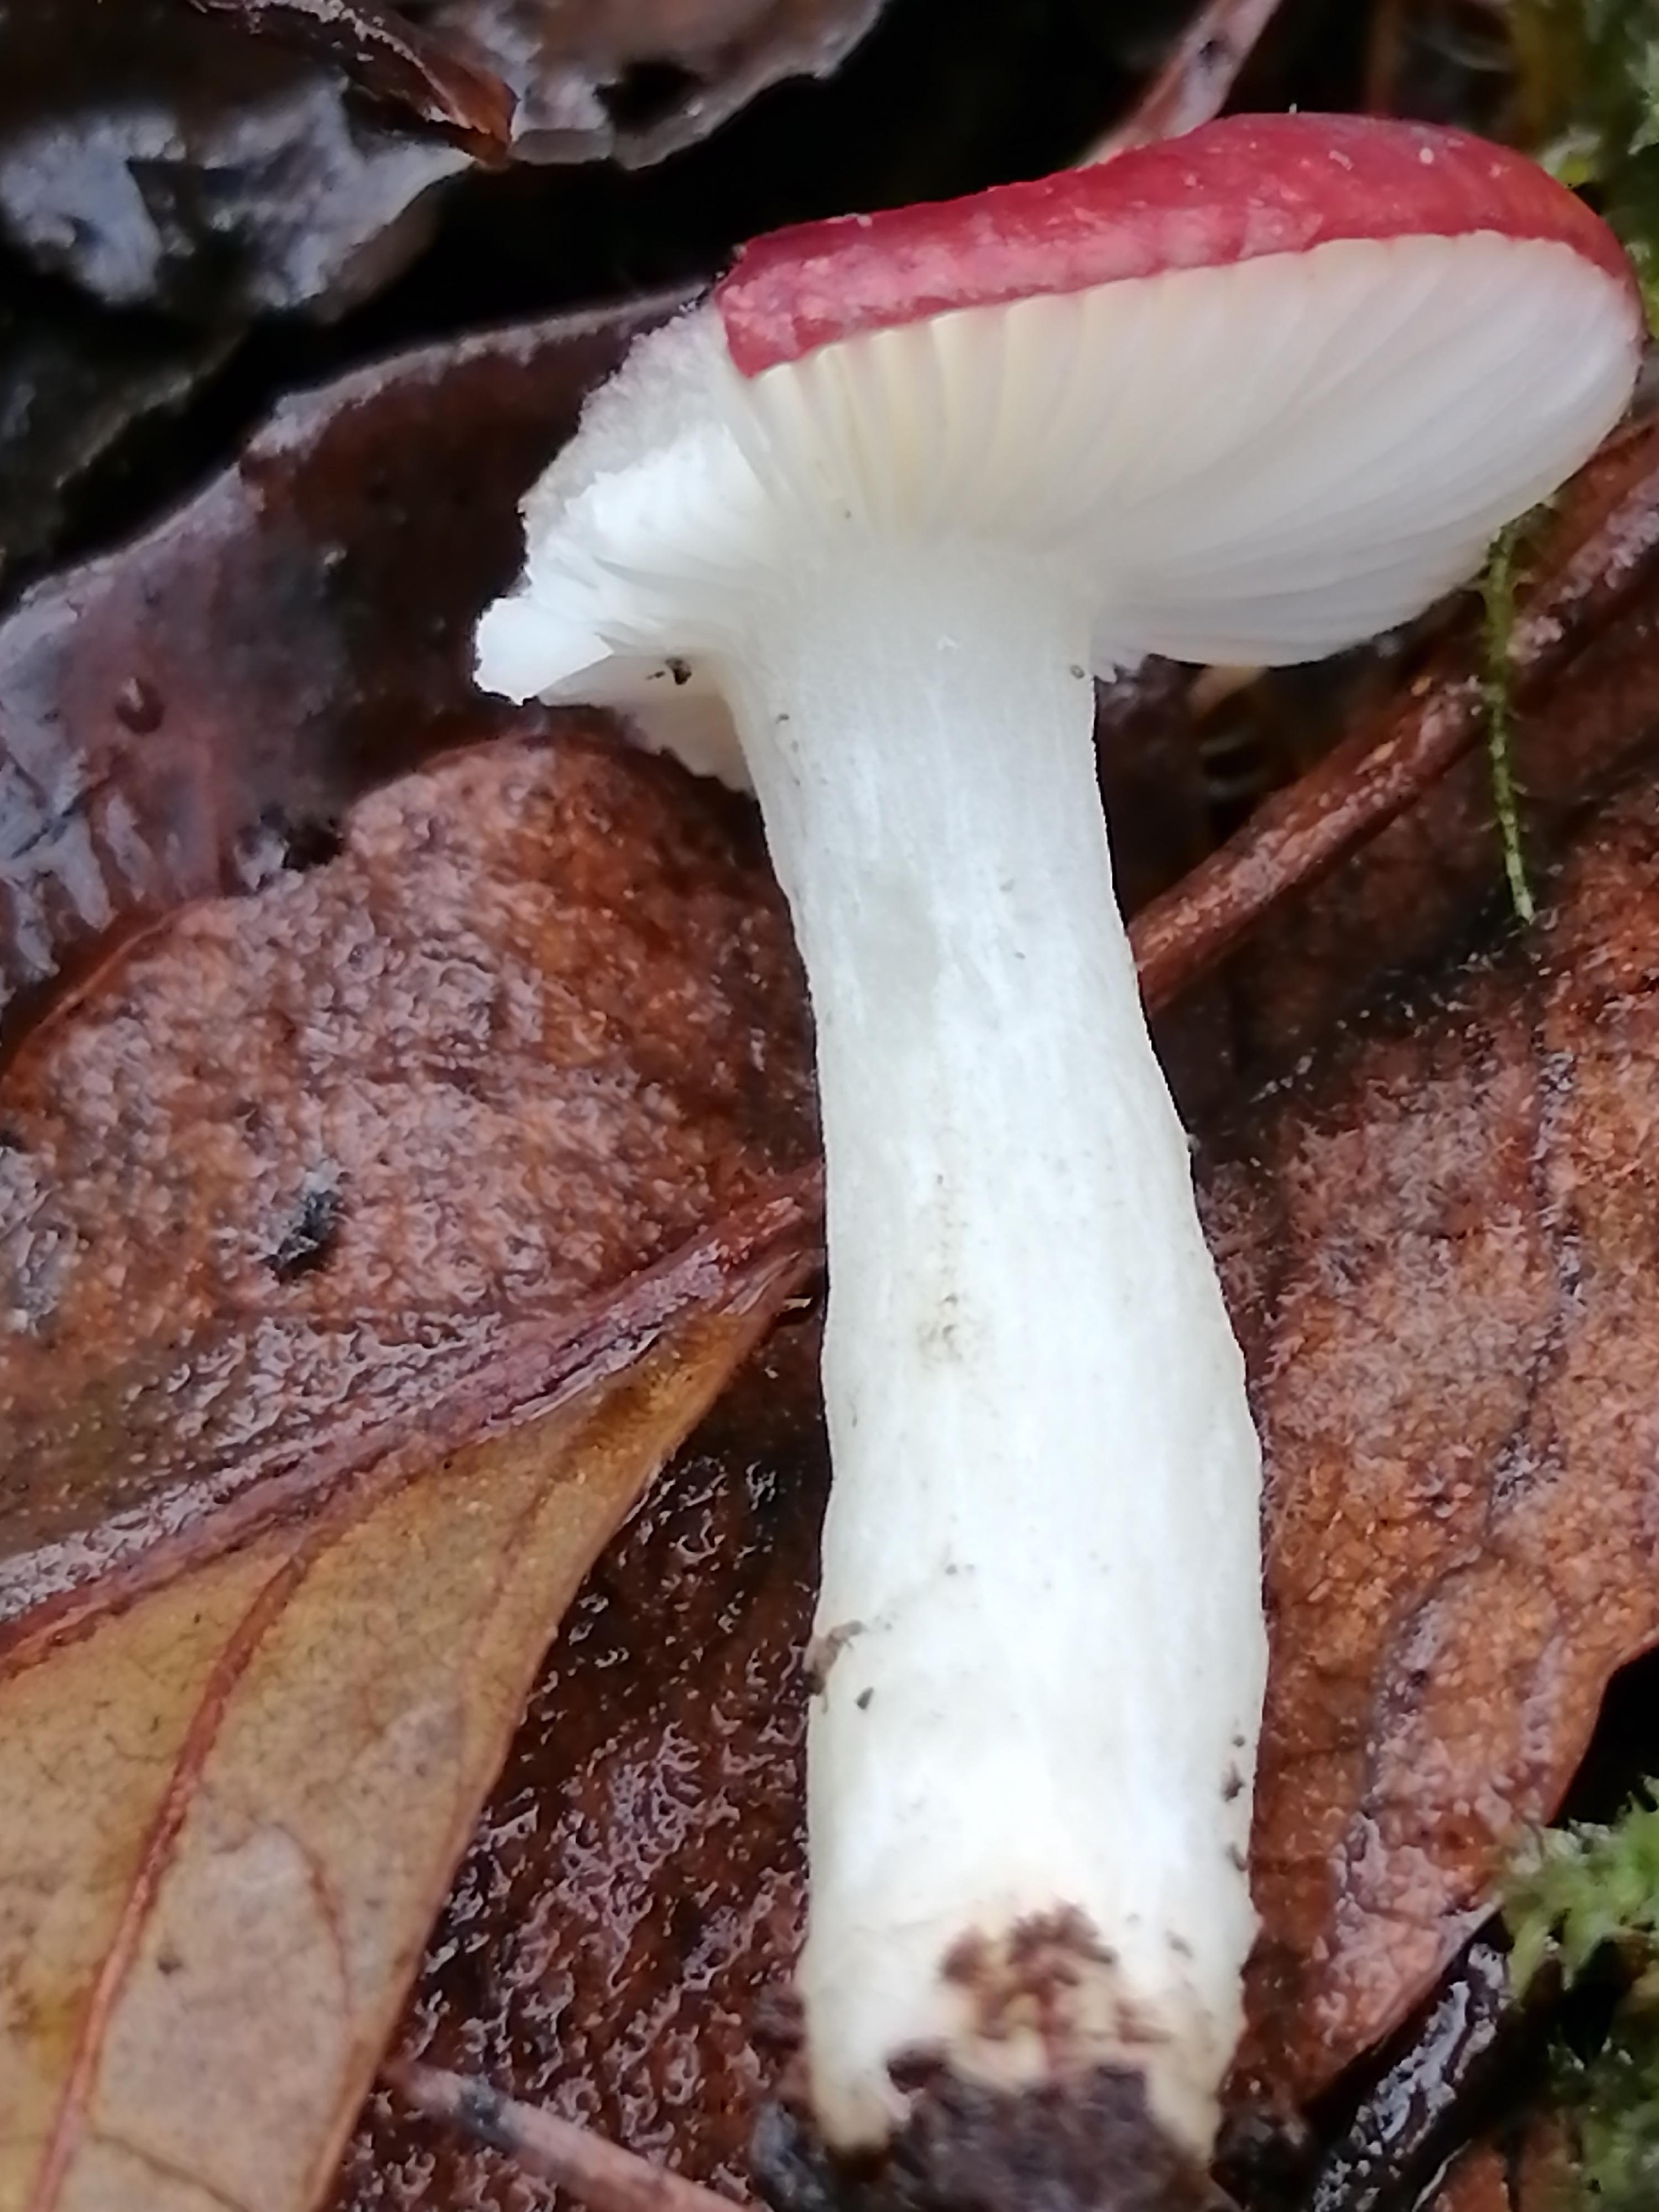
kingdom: Fungi
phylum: Basidiomycota
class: Agaricomycetes
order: Russulales
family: Russulaceae
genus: Russula
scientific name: Russula
